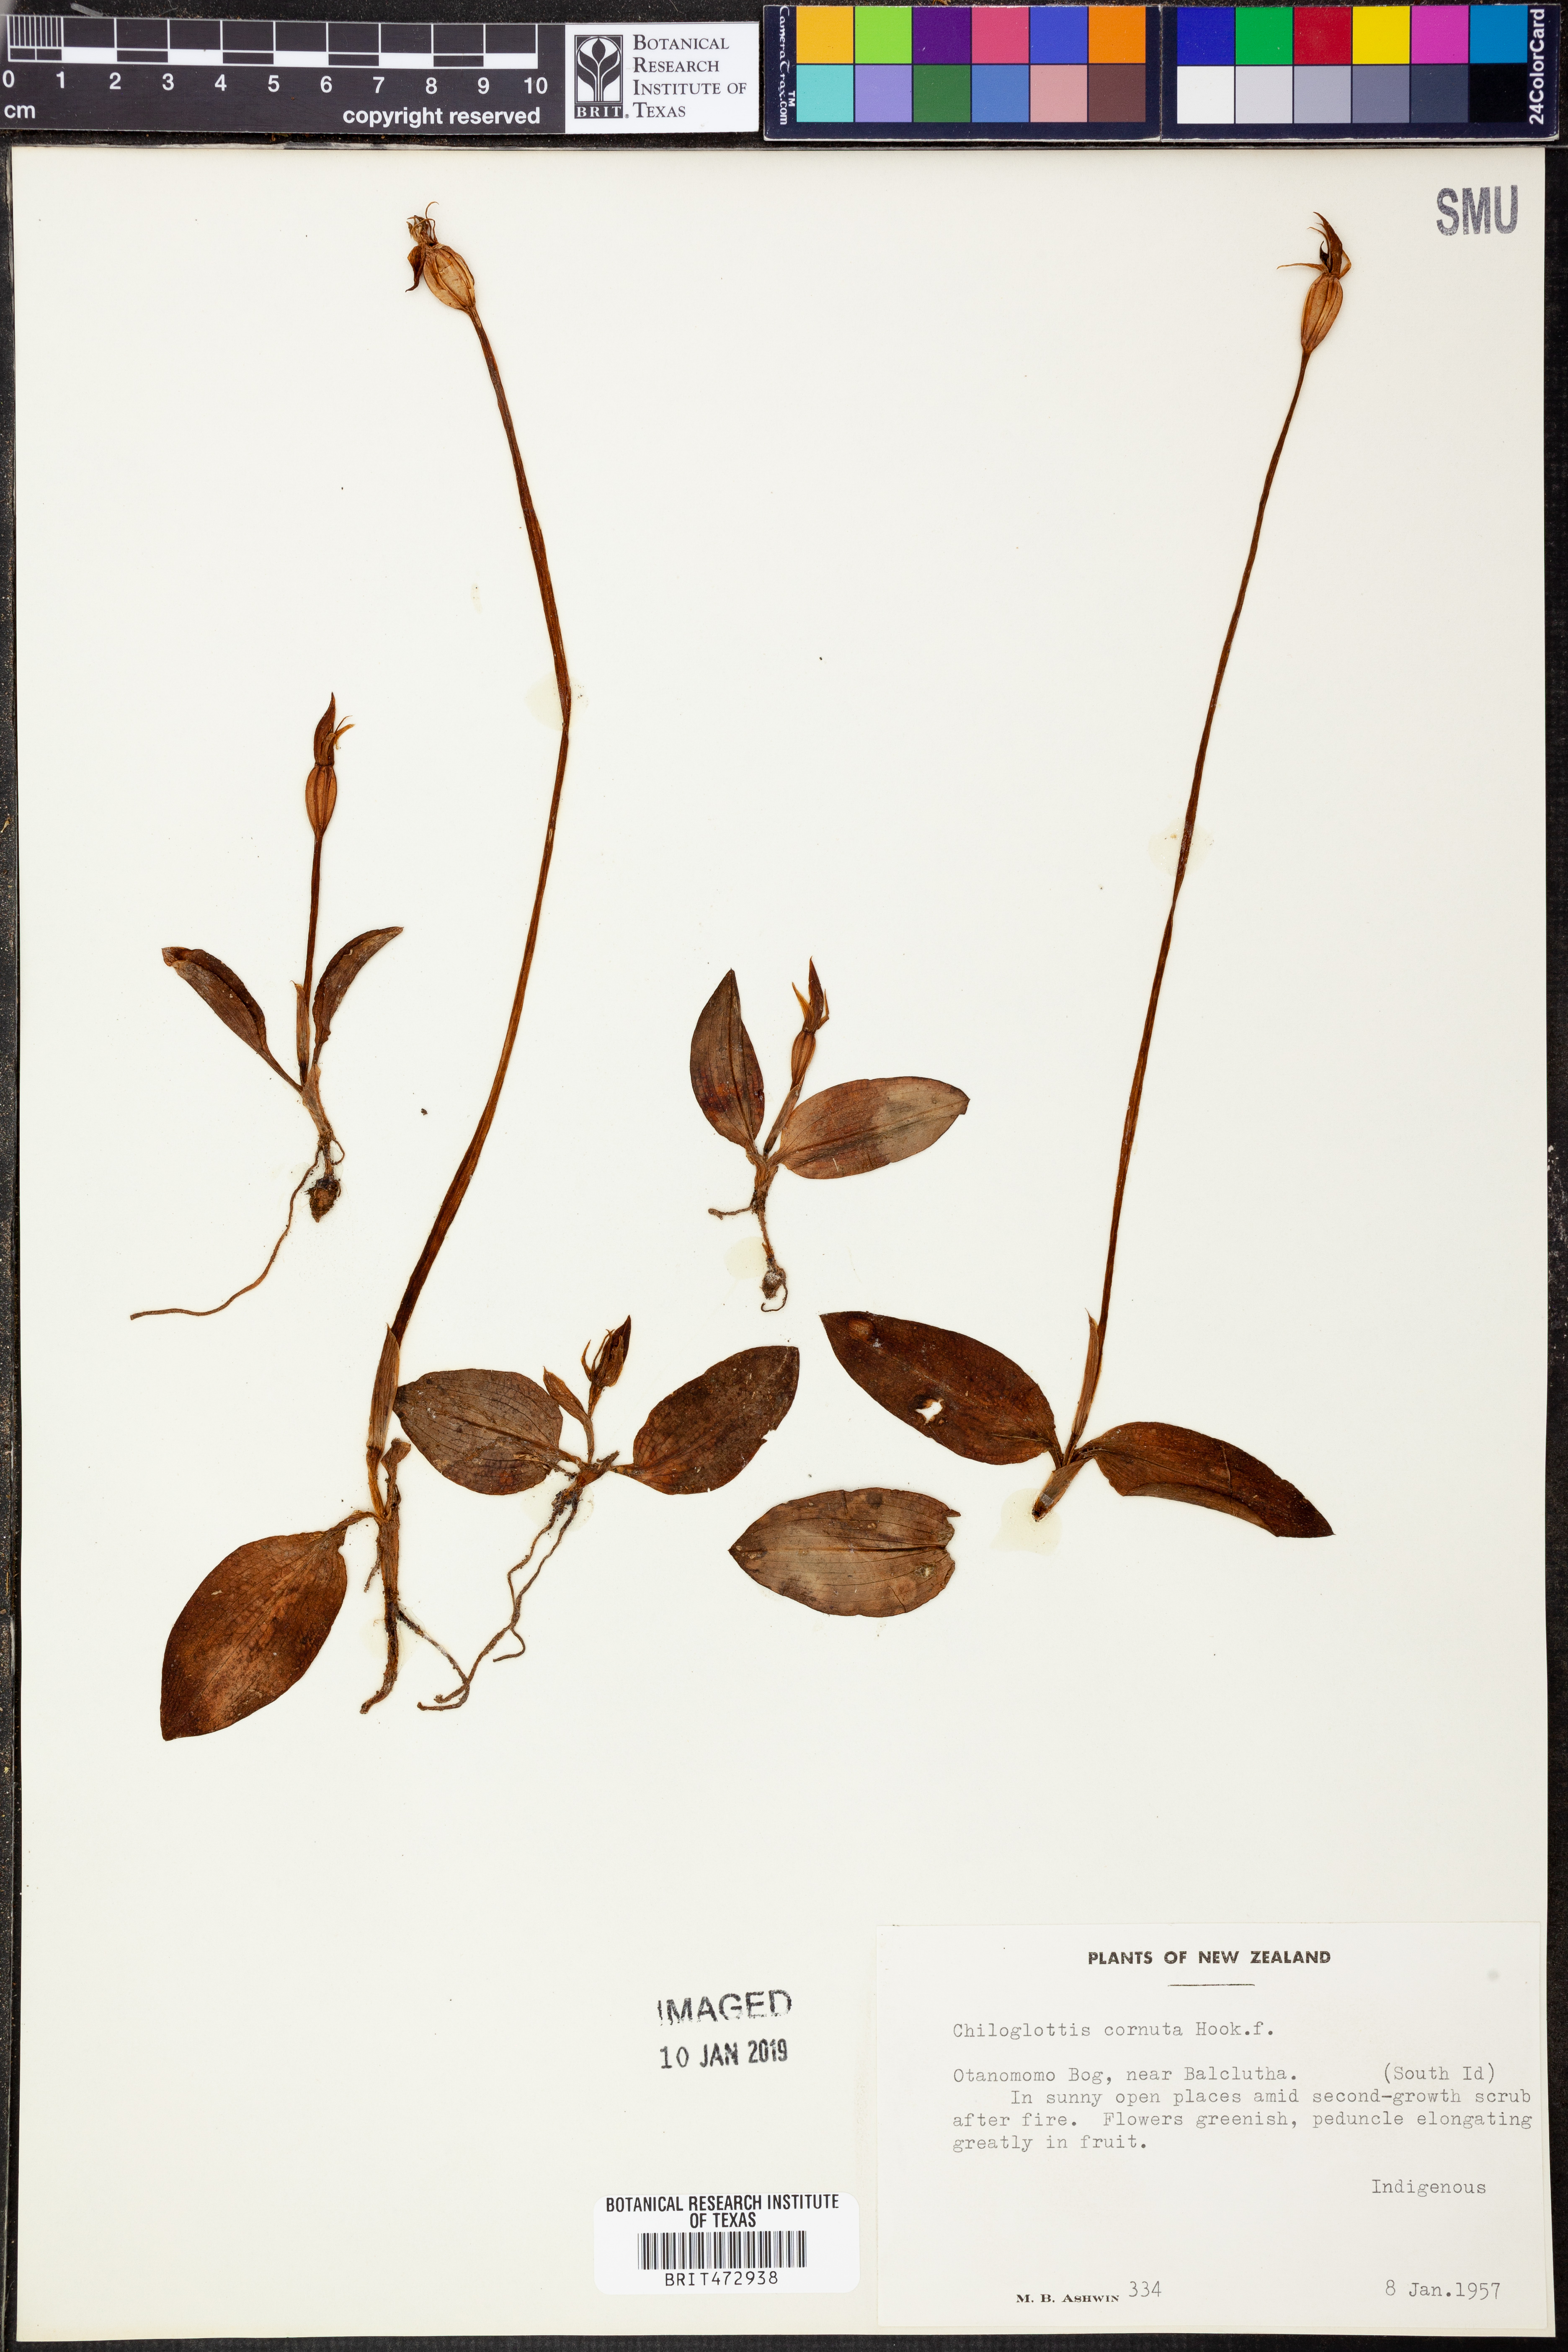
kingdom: Plantae
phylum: Tracheophyta
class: Liliopsida
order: Asparagales
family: Orchidaceae
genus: Chiloglottis
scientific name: Chiloglottis cornuta
